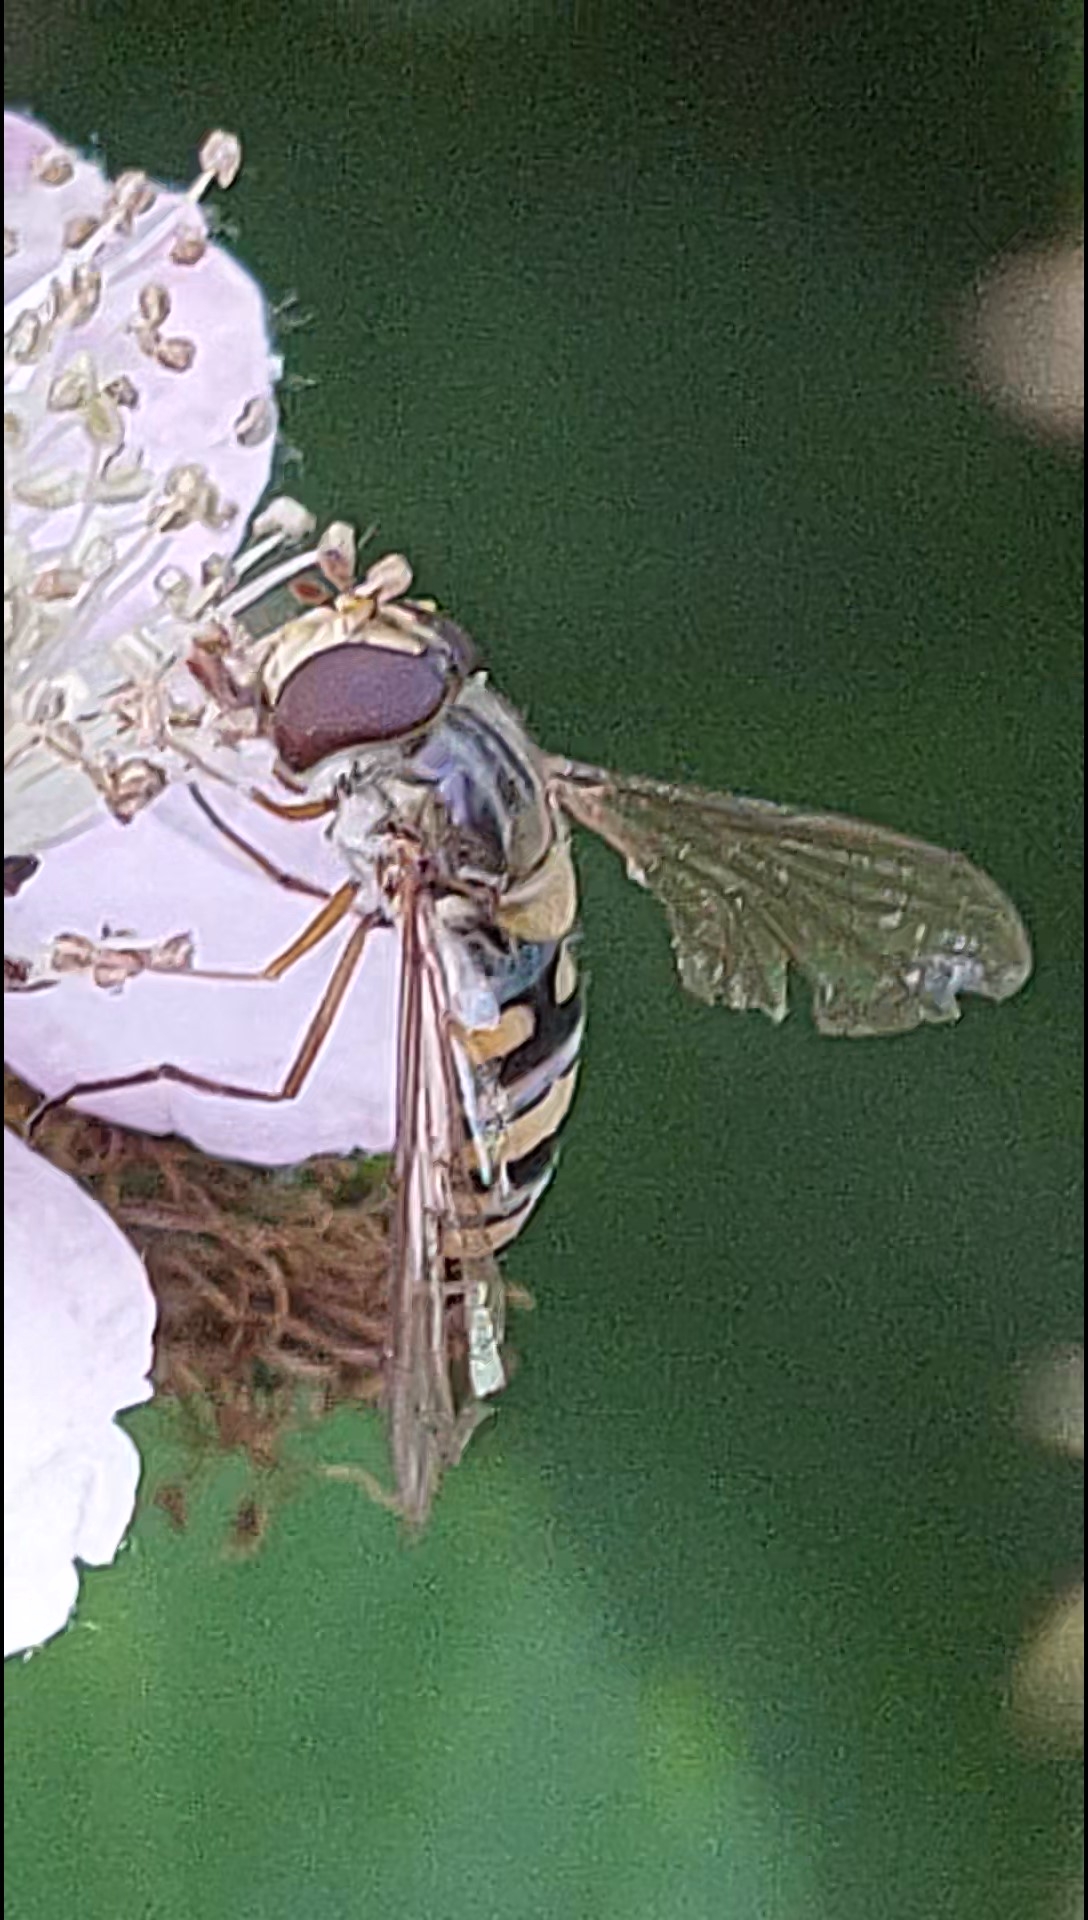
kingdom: Animalia
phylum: Arthropoda
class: Insecta
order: Diptera
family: Syrphidae
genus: Episyrphus
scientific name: Episyrphus balteatus
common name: Dobbeltbåndet svirreflue
